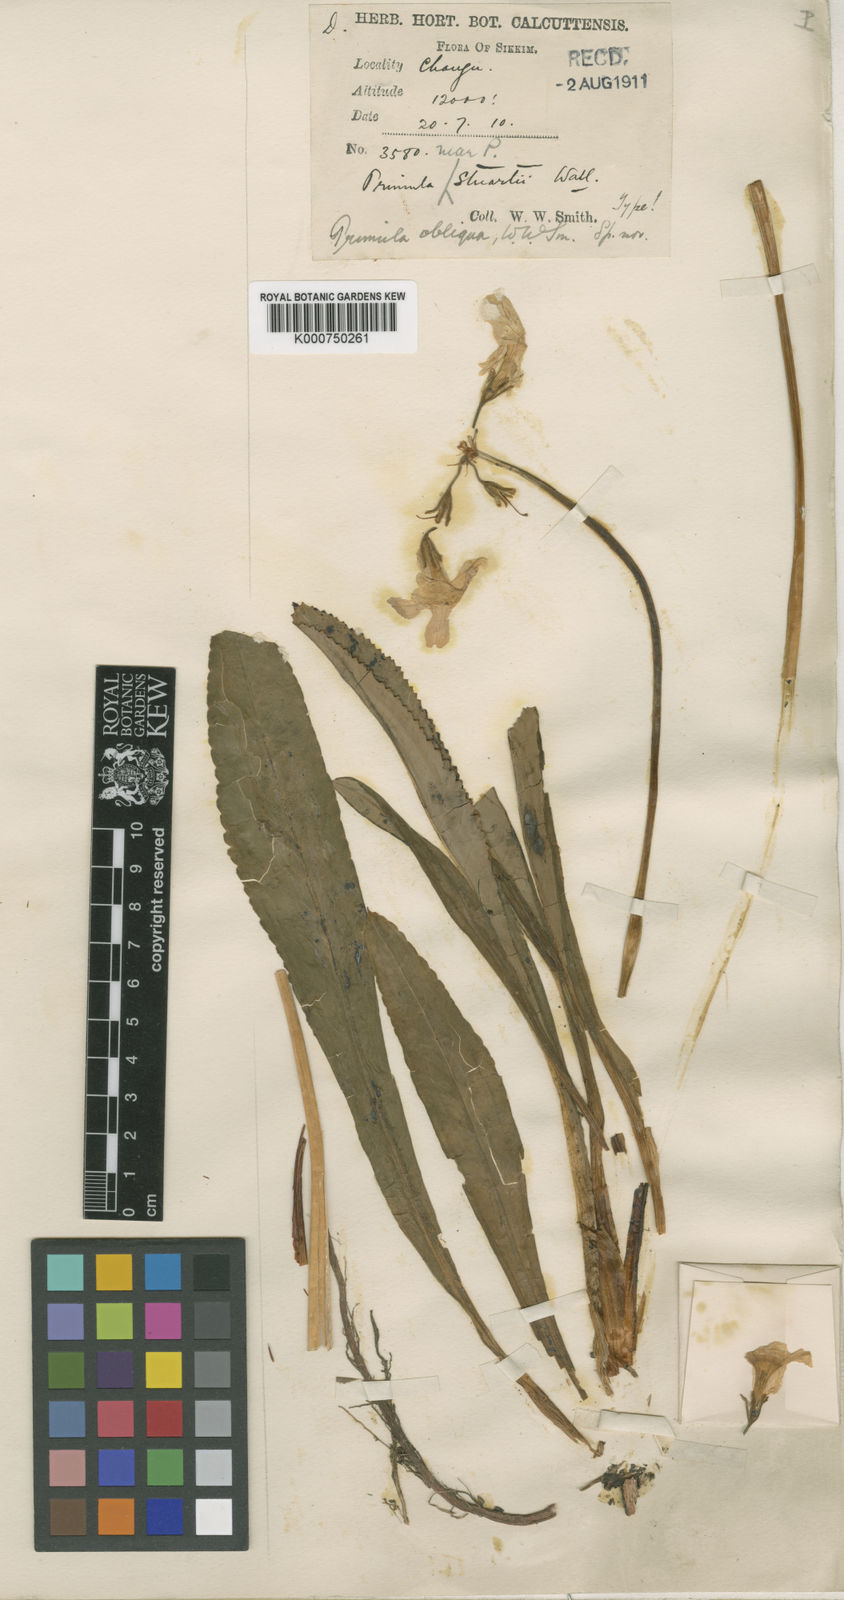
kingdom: Plantae
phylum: Tracheophyta
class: Magnoliopsida
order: Ericales
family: Primulaceae
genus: Primula
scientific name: Primula obliqua
